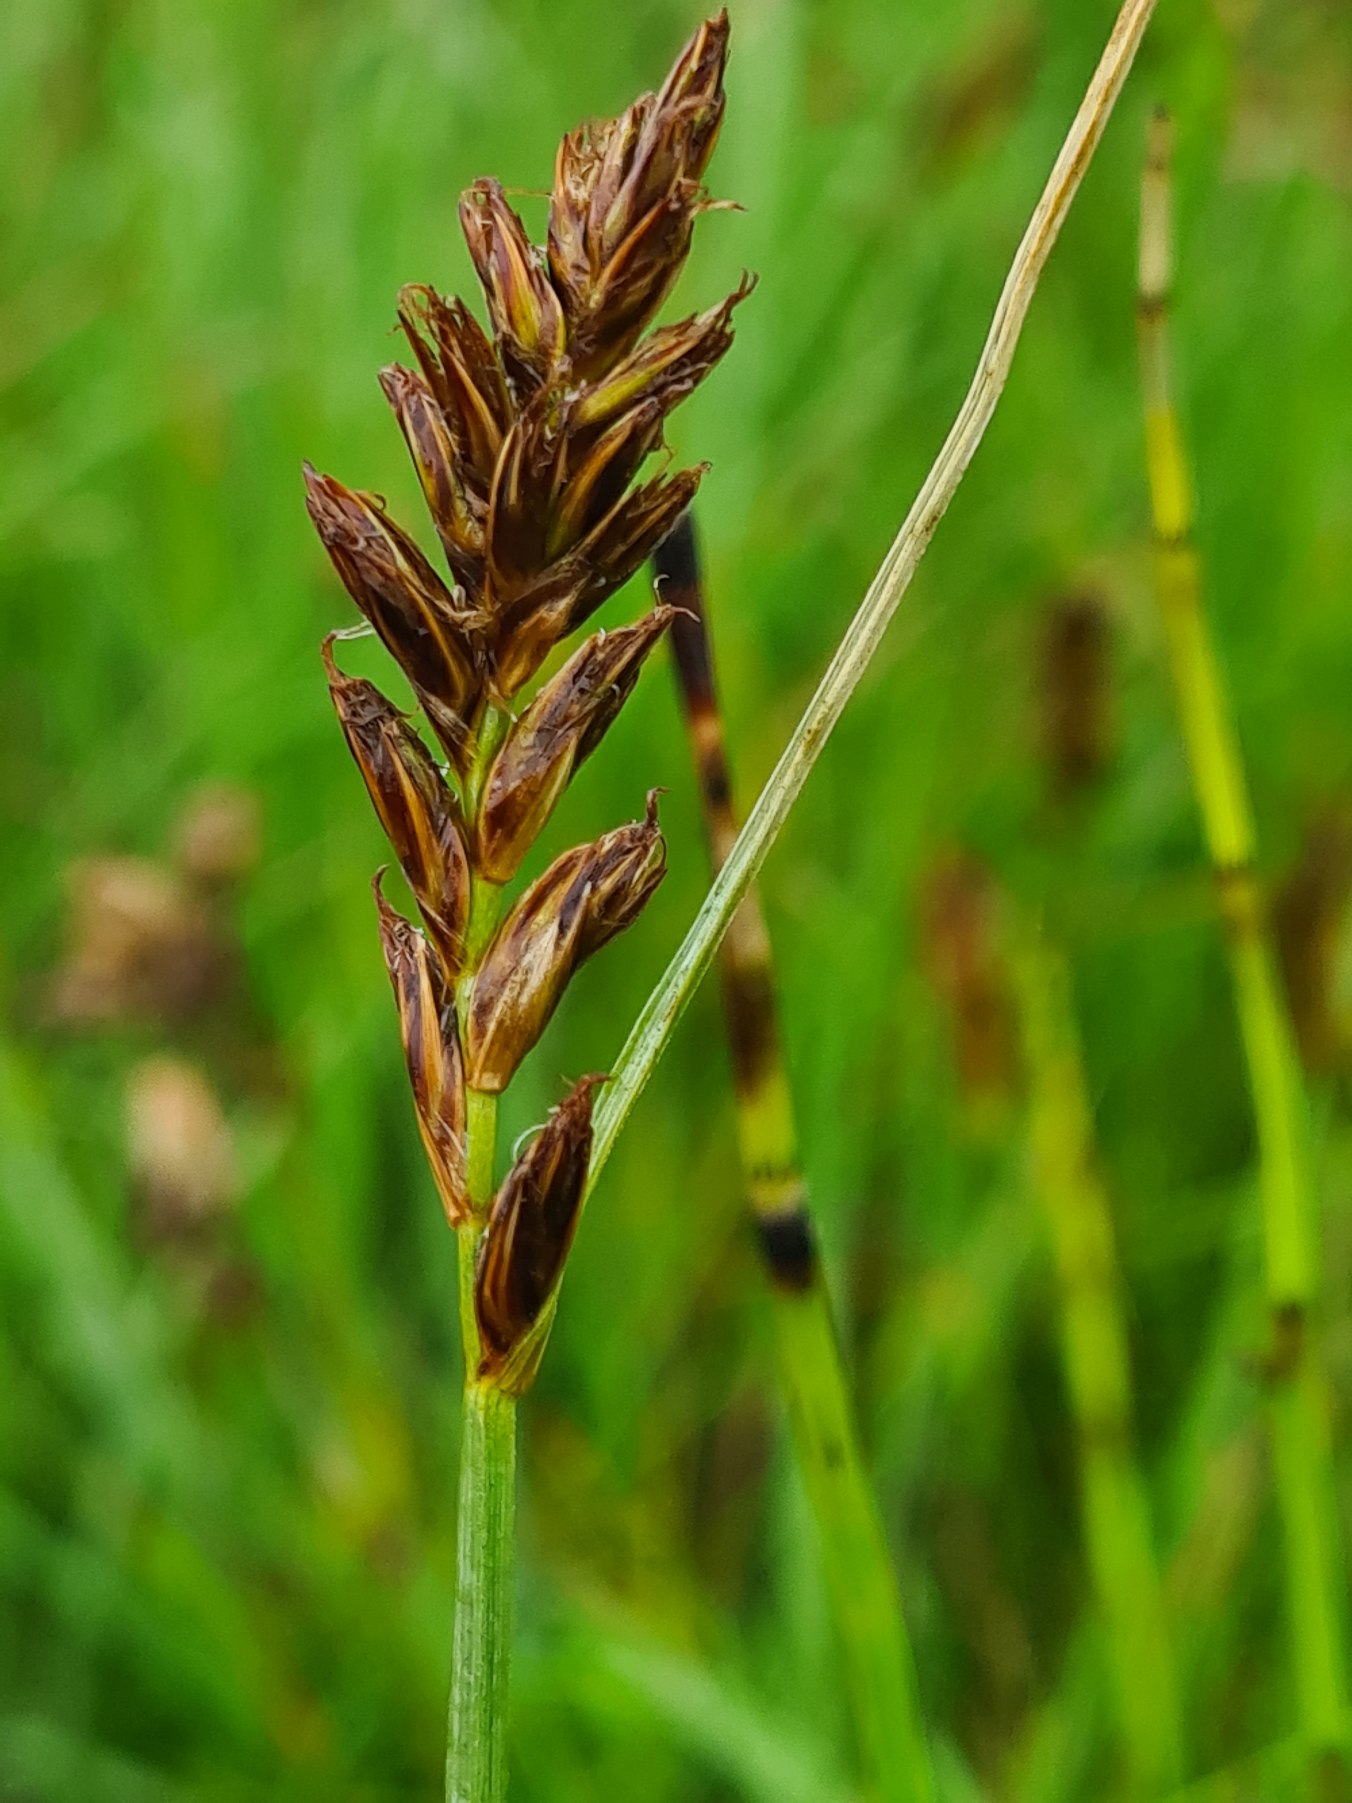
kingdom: Plantae
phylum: Tracheophyta
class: Liliopsida
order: Poales
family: Cyperaceae
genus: Blysmus
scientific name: Blysmus compressus
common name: Fladtrykt kogleaks
